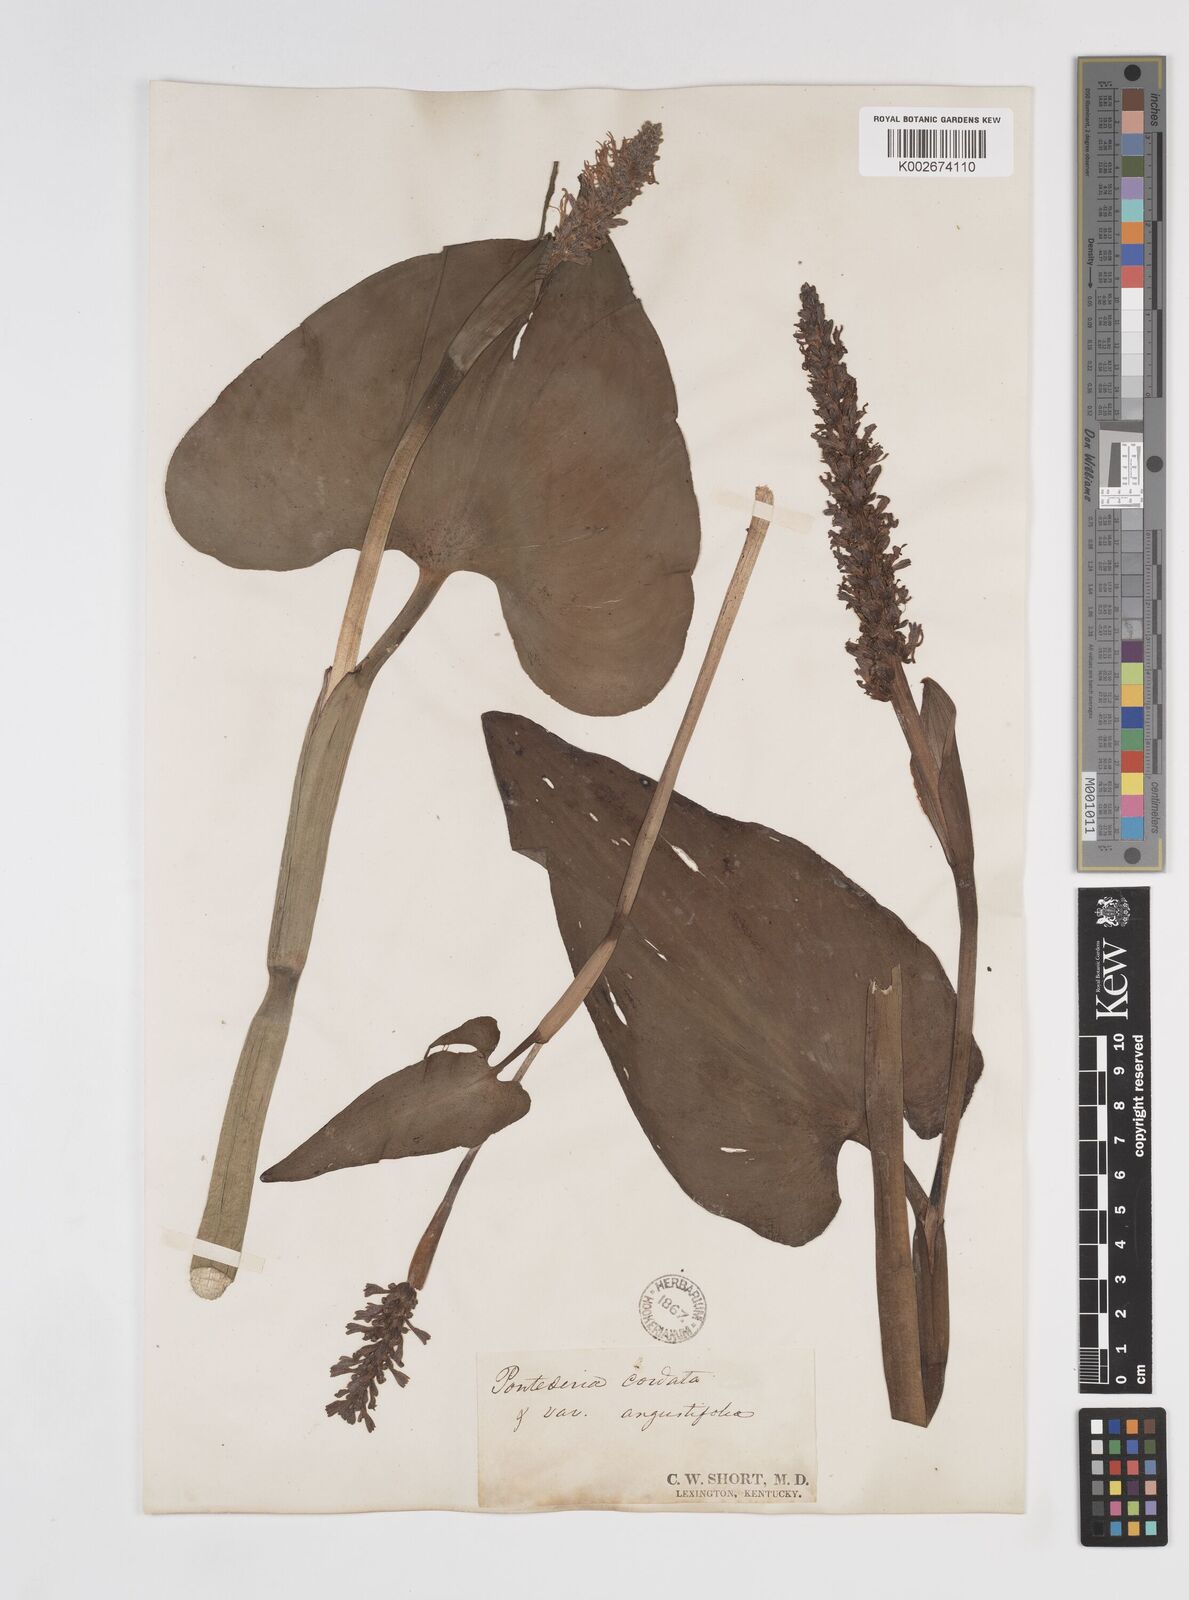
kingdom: Plantae
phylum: Tracheophyta
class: Liliopsida
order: Commelinales
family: Pontederiaceae
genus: Pontederia
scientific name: Pontederia cordata
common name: Pickerelweed
